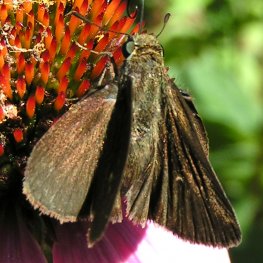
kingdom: Animalia
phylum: Arthropoda
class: Insecta
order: Lepidoptera
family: Hesperiidae
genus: Euphyes
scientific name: Euphyes vestris
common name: Dun Skipper
